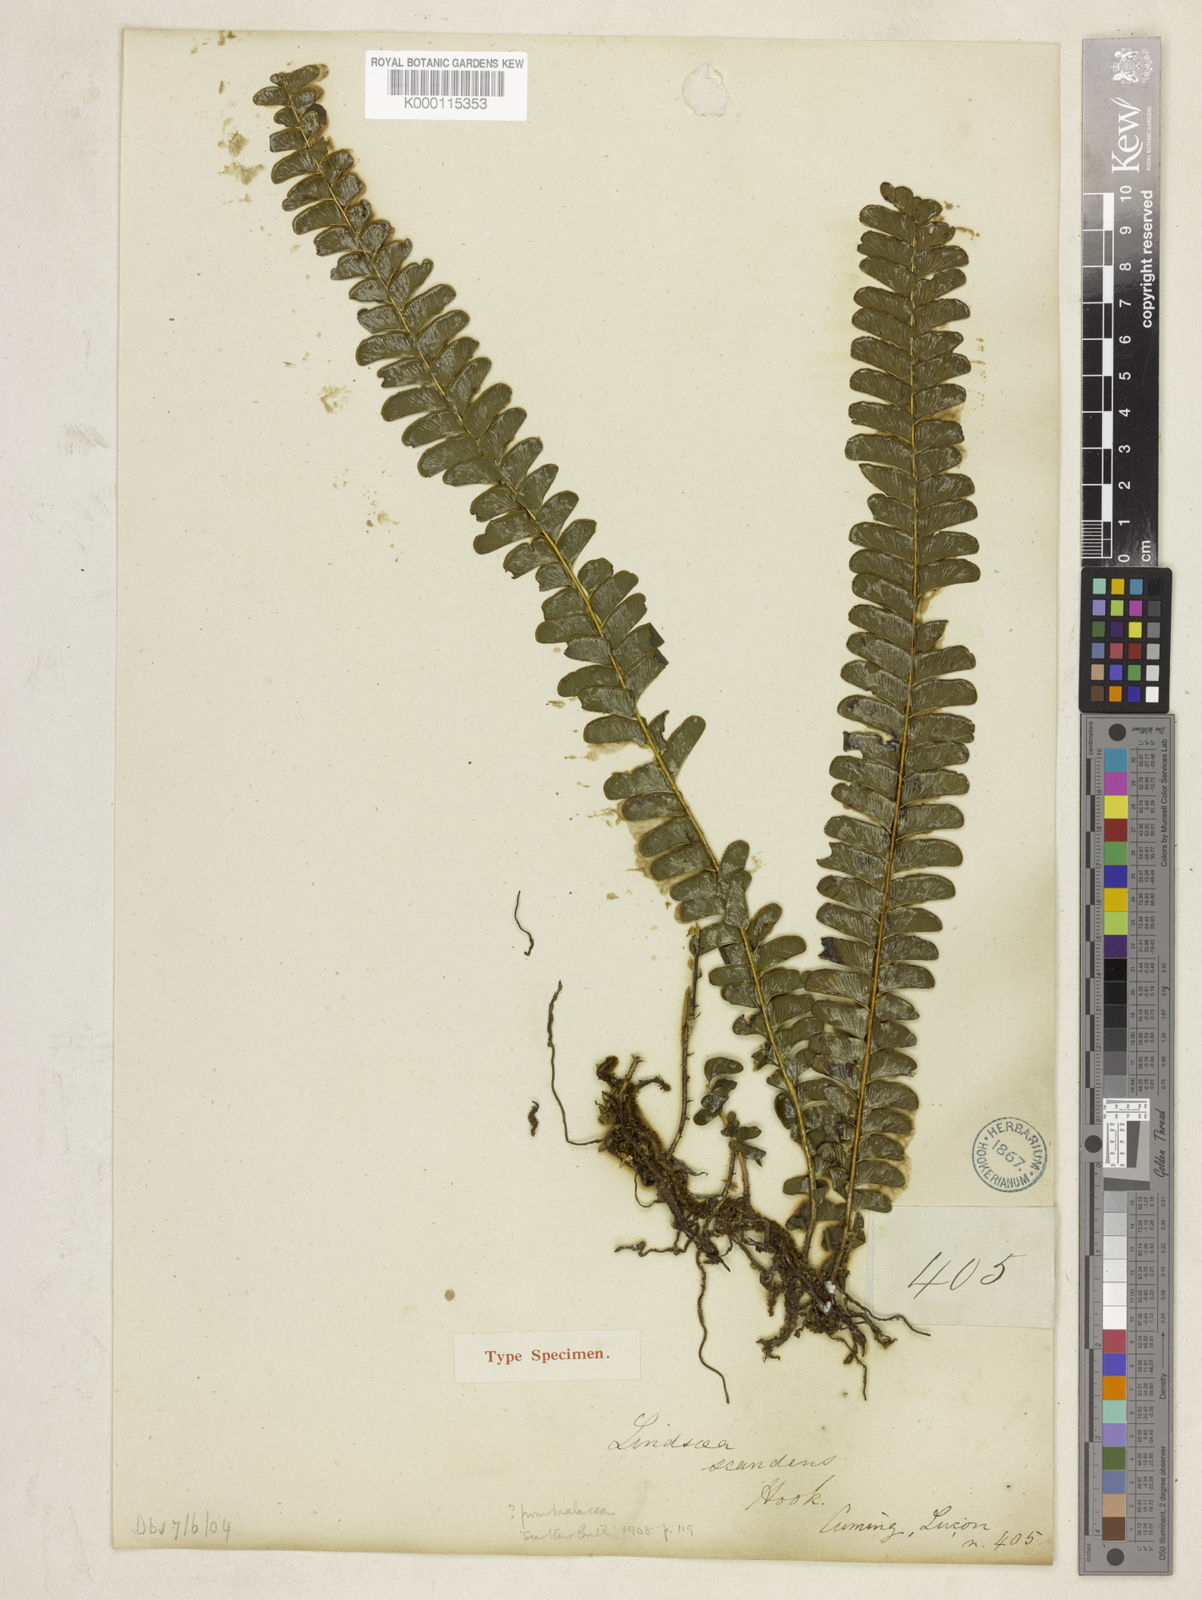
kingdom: Plantae
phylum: Tracheophyta
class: Polypodiopsida
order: Polypodiales
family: Lindsaeaceae
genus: Nesolindsaea
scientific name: Nesolindsaea caudata
